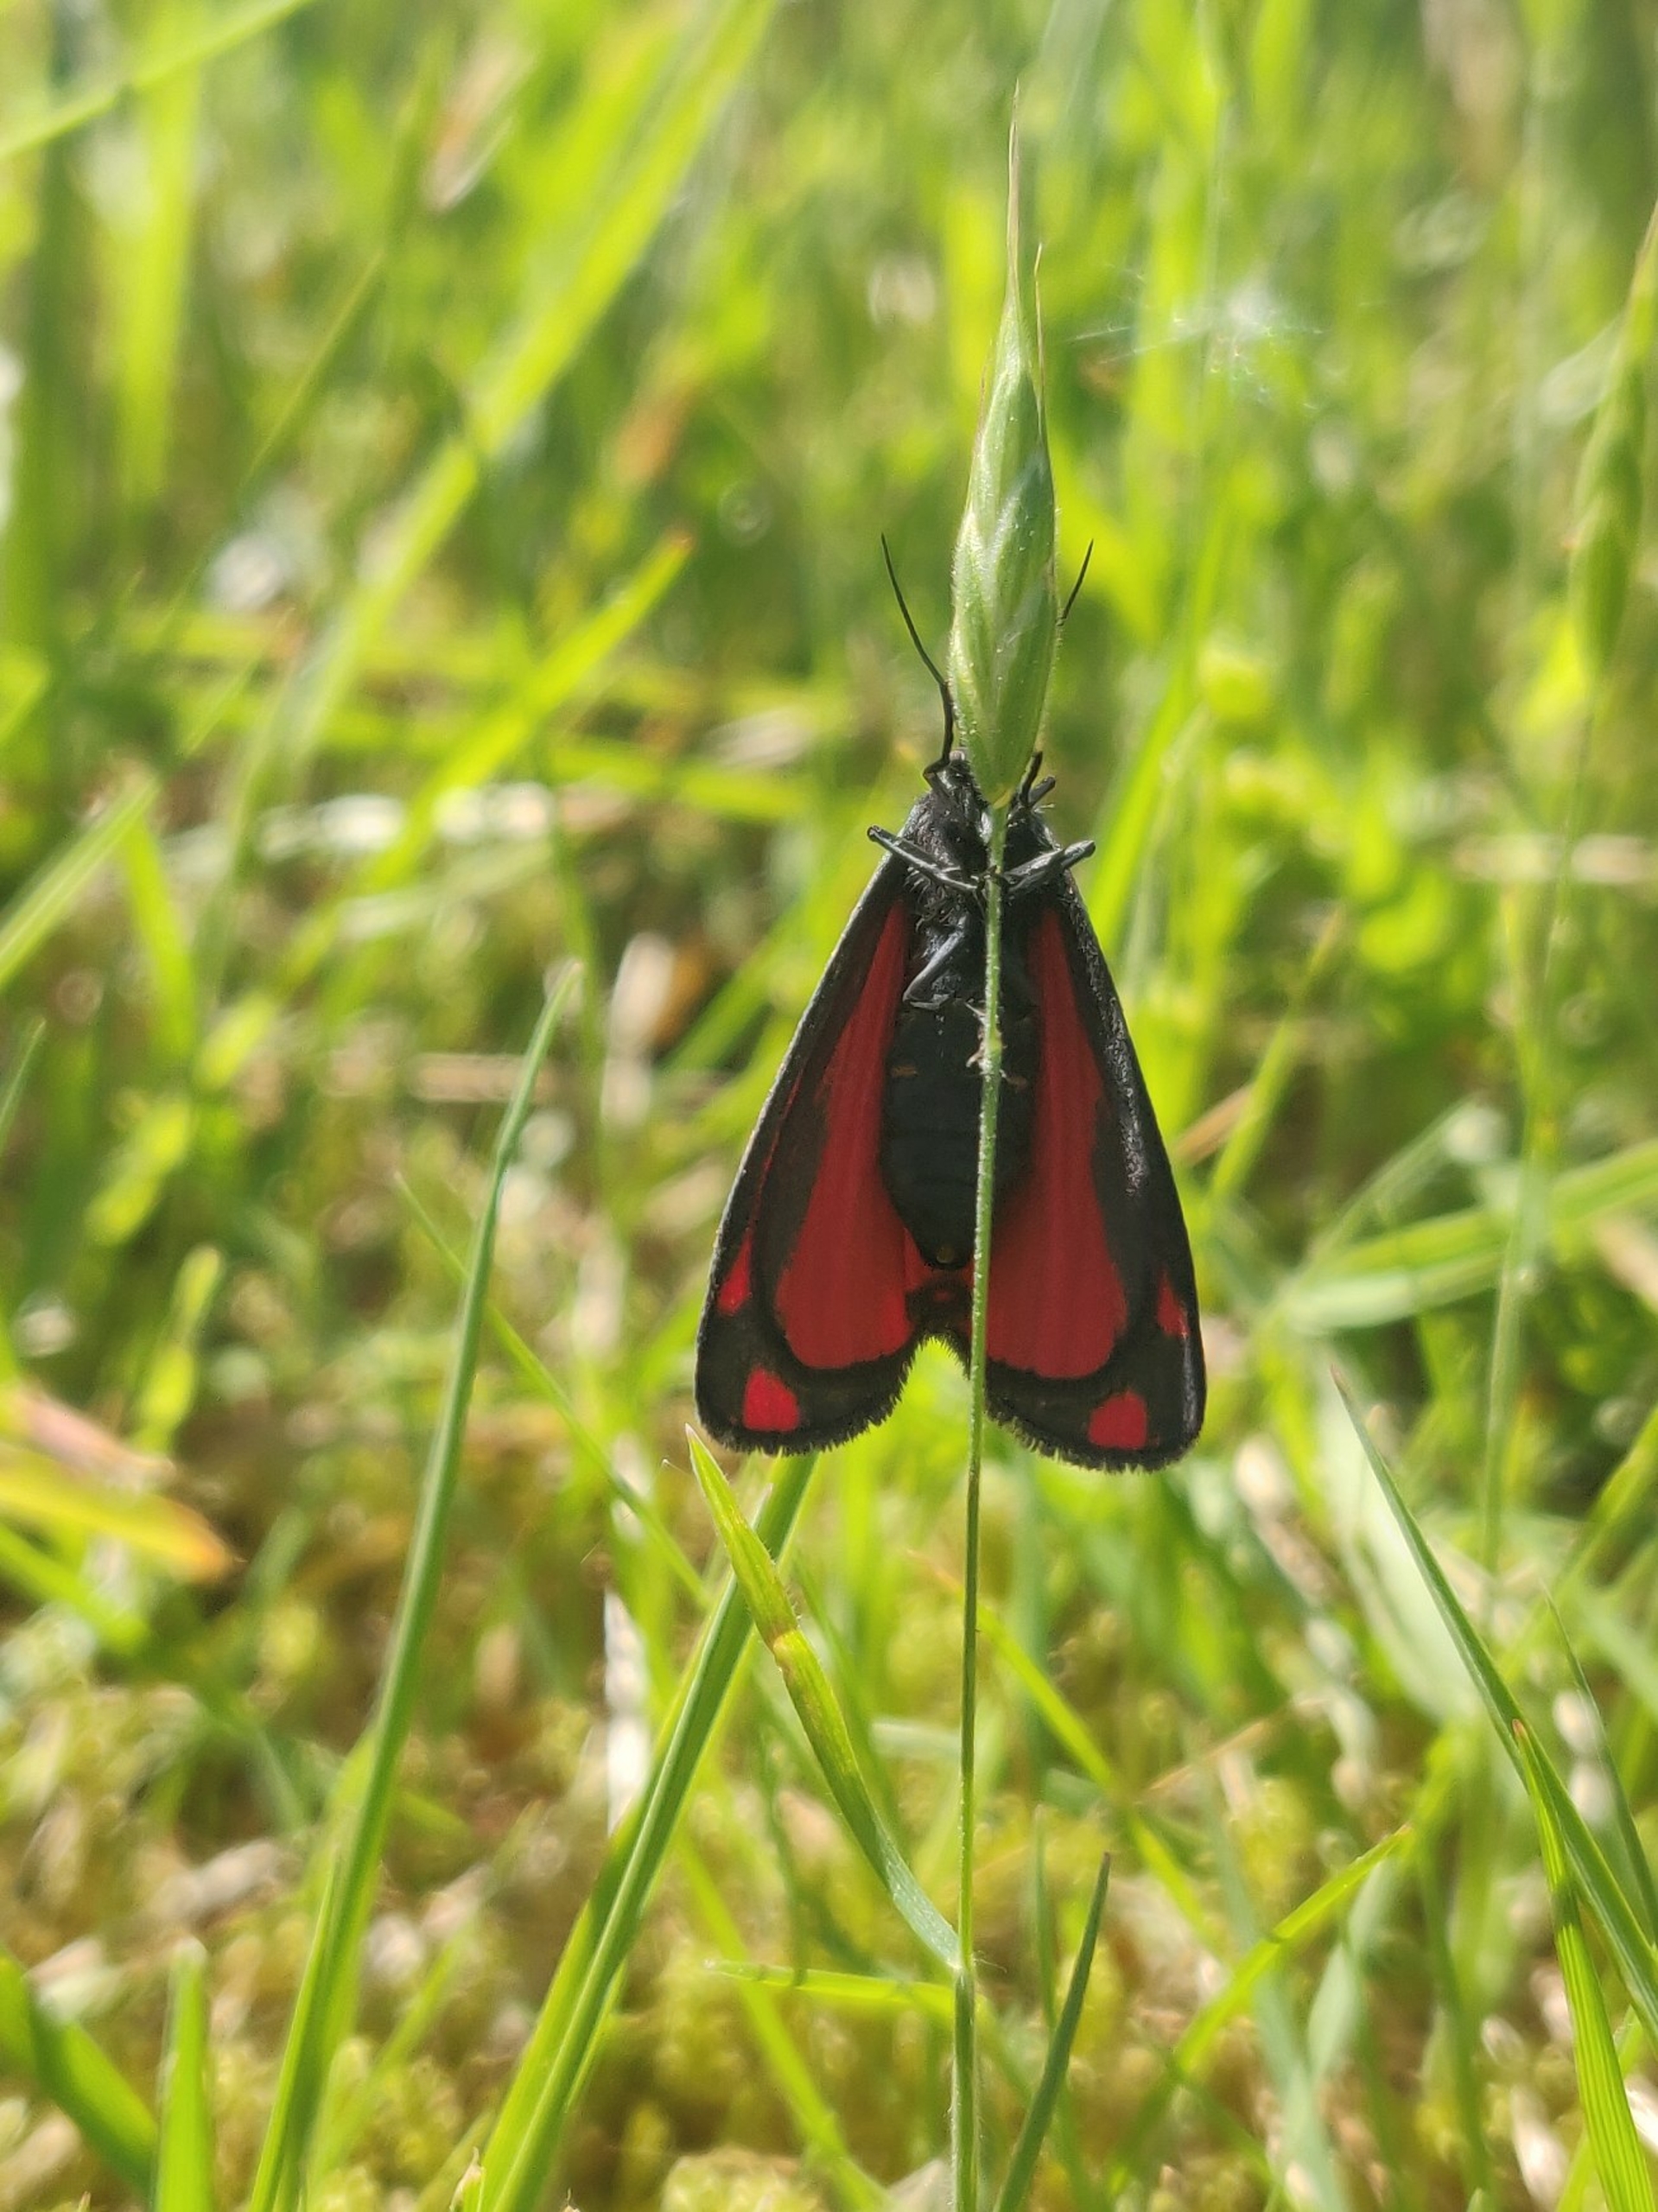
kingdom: Animalia
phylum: Arthropoda
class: Insecta
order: Lepidoptera
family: Erebidae
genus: Tyria
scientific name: Tyria jacobaeae
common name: Blodplet
